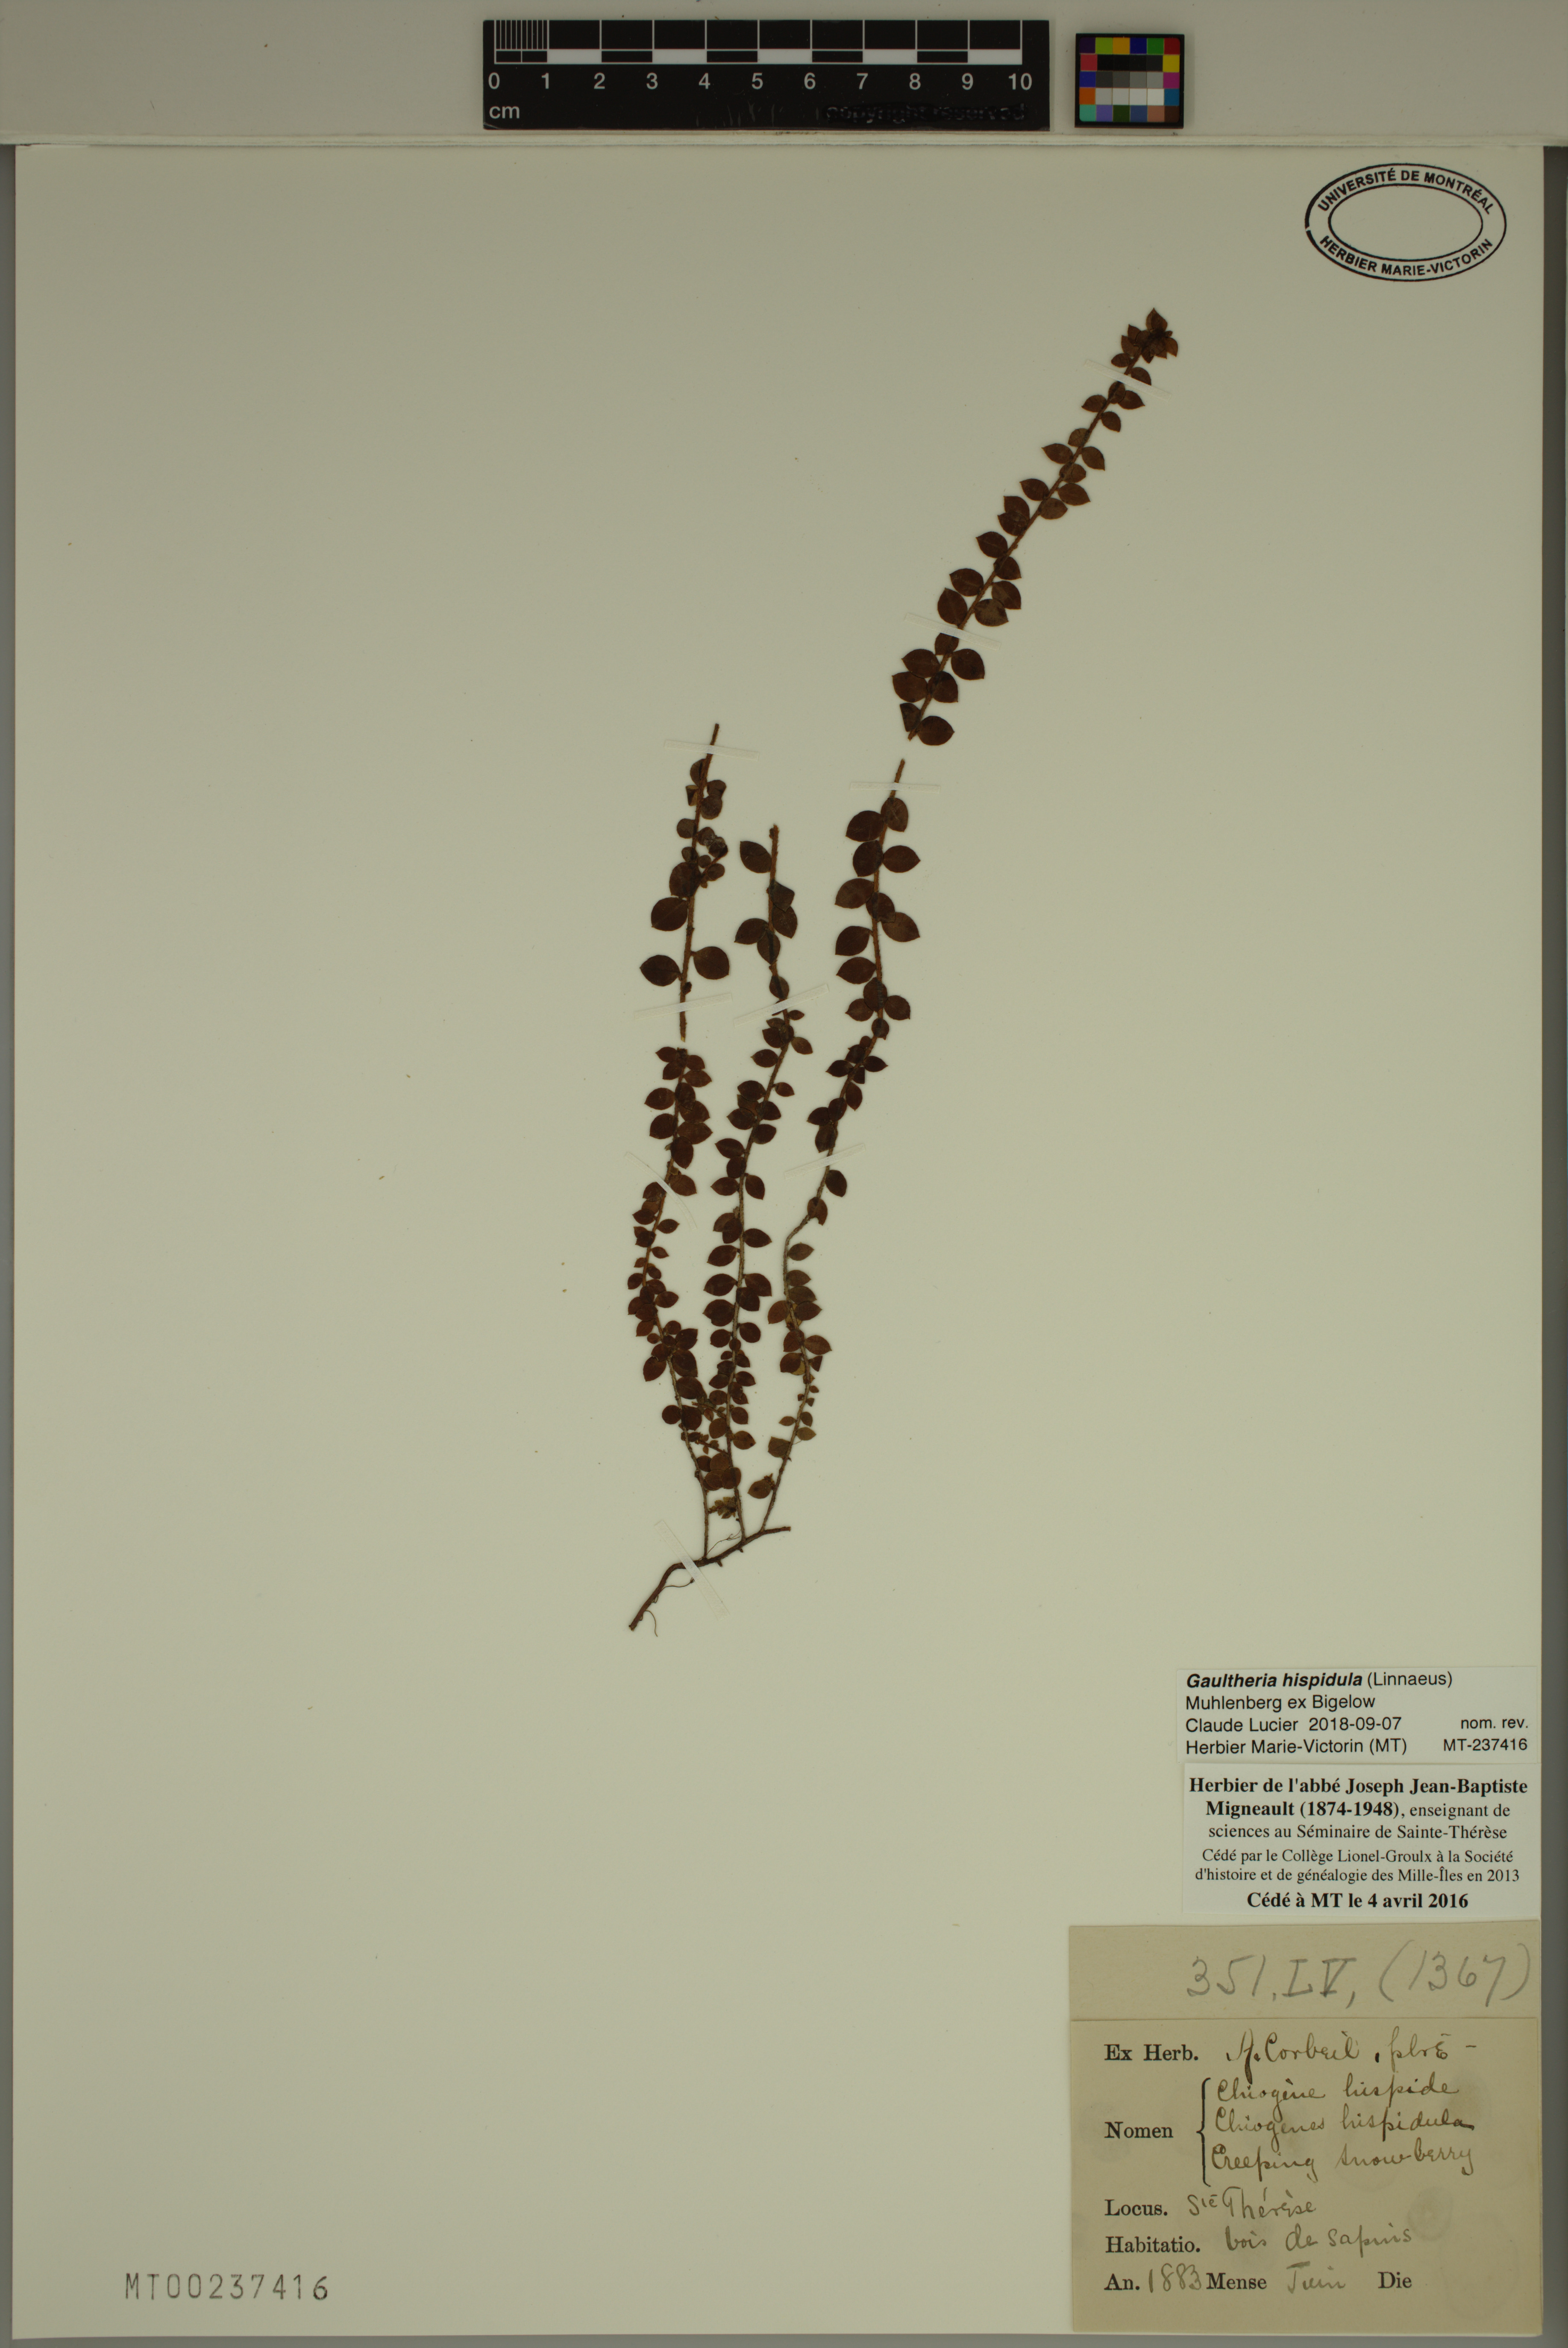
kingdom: Plantae
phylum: Tracheophyta
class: Magnoliopsida
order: Ericales
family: Ericaceae
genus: Gaultheria
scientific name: Gaultheria hispidula
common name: Cancer wintergreen
